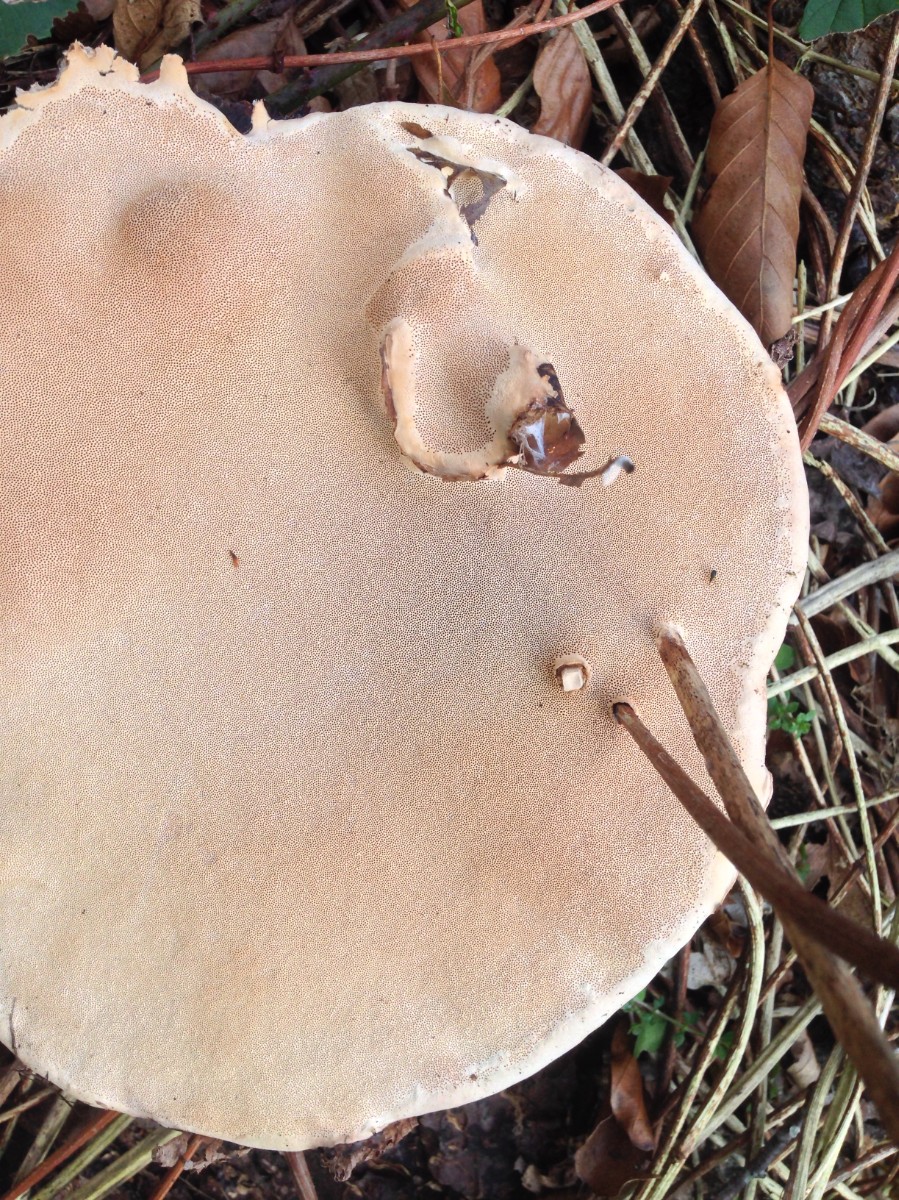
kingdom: Fungi
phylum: Basidiomycota
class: Agaricomycetes
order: Polyporales
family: Fomitopsidaceae
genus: Fomitopsis
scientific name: Fomitopsis pinicola
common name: randbæltet hovporesvamp
